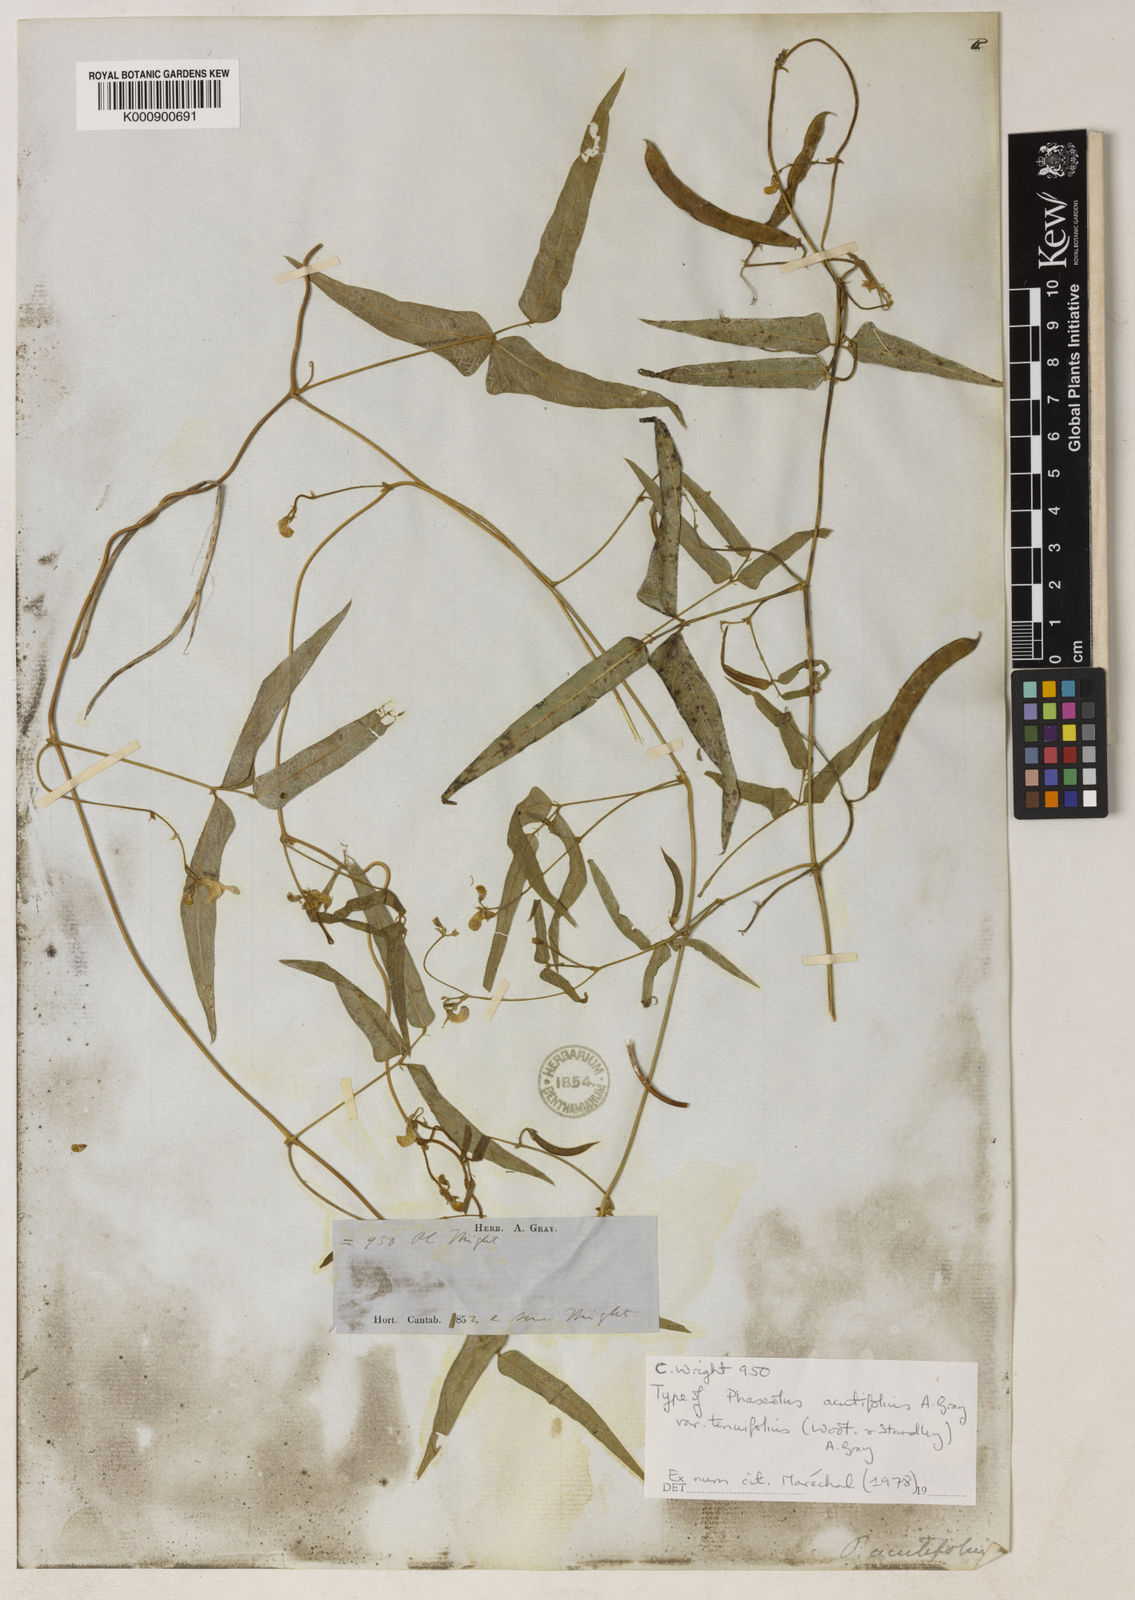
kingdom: Plantae
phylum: Tracheophyta
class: Magnoliopsida
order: Fabales
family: Fabaceae
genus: Phaseolus
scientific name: Phaseolus acutifolius
